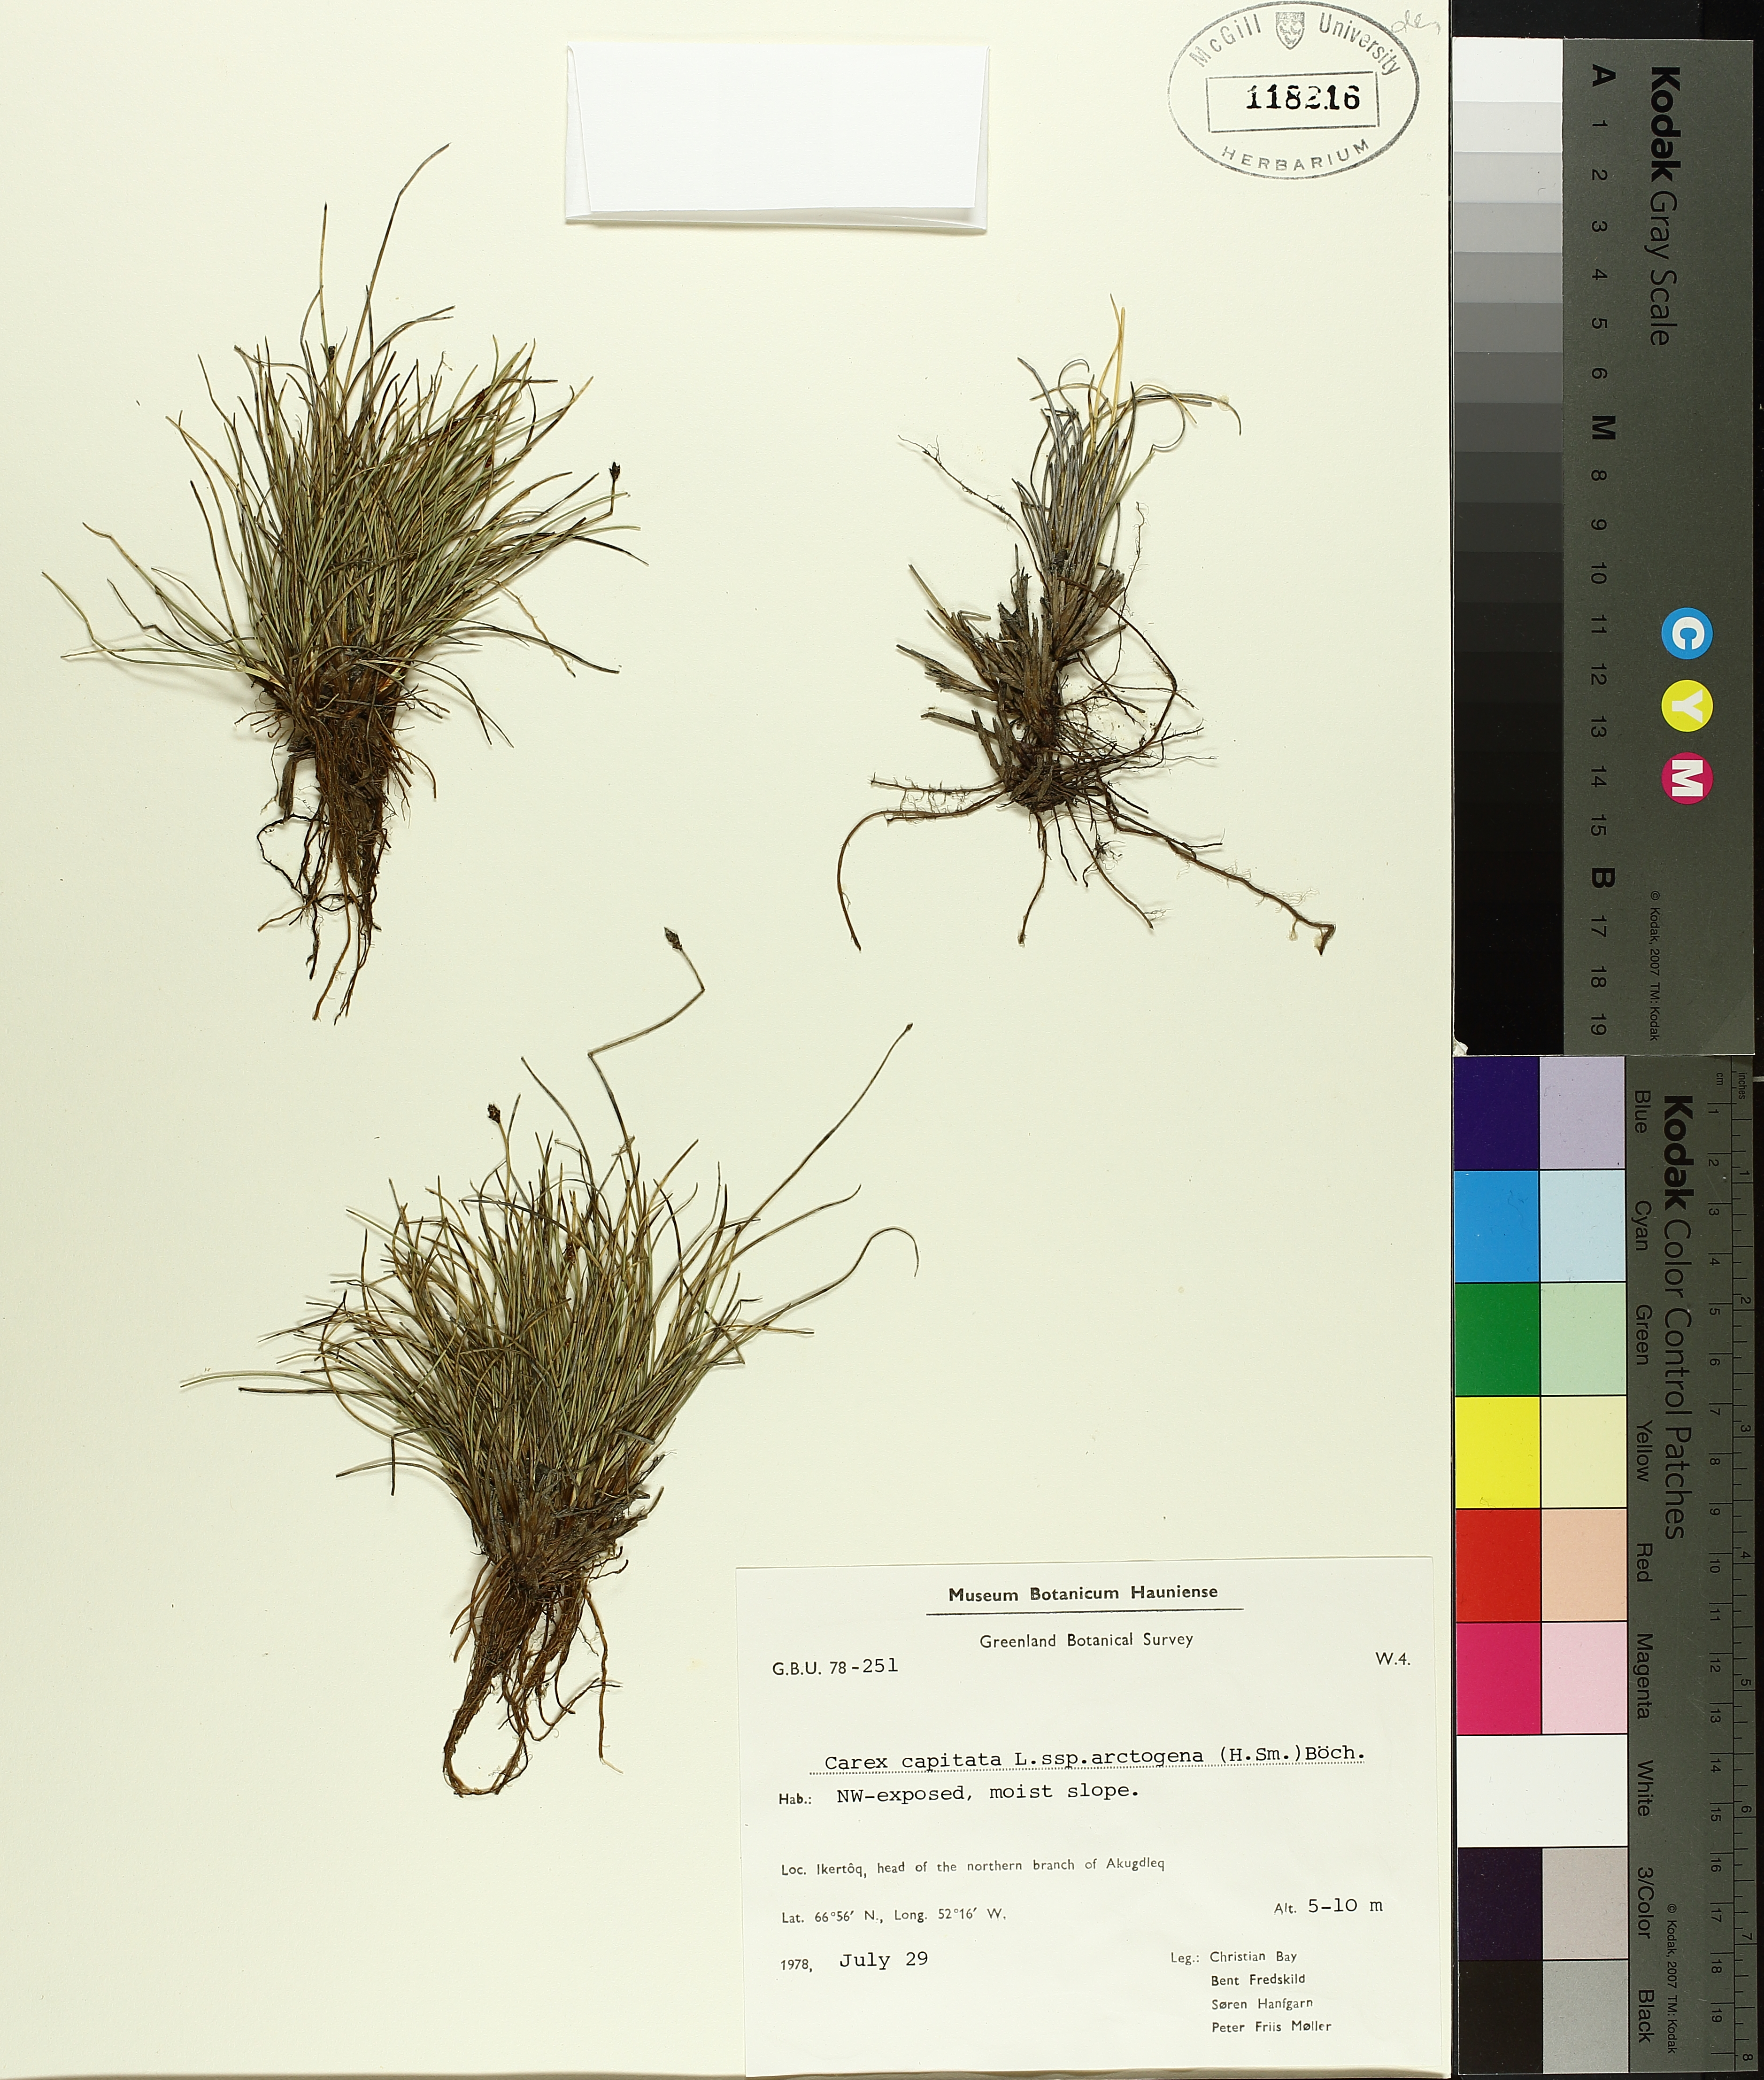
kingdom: Plantae
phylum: Tracheophyta
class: Liliopsida
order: Poales
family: Cyperaceae
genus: Carex
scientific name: Carex capitata
